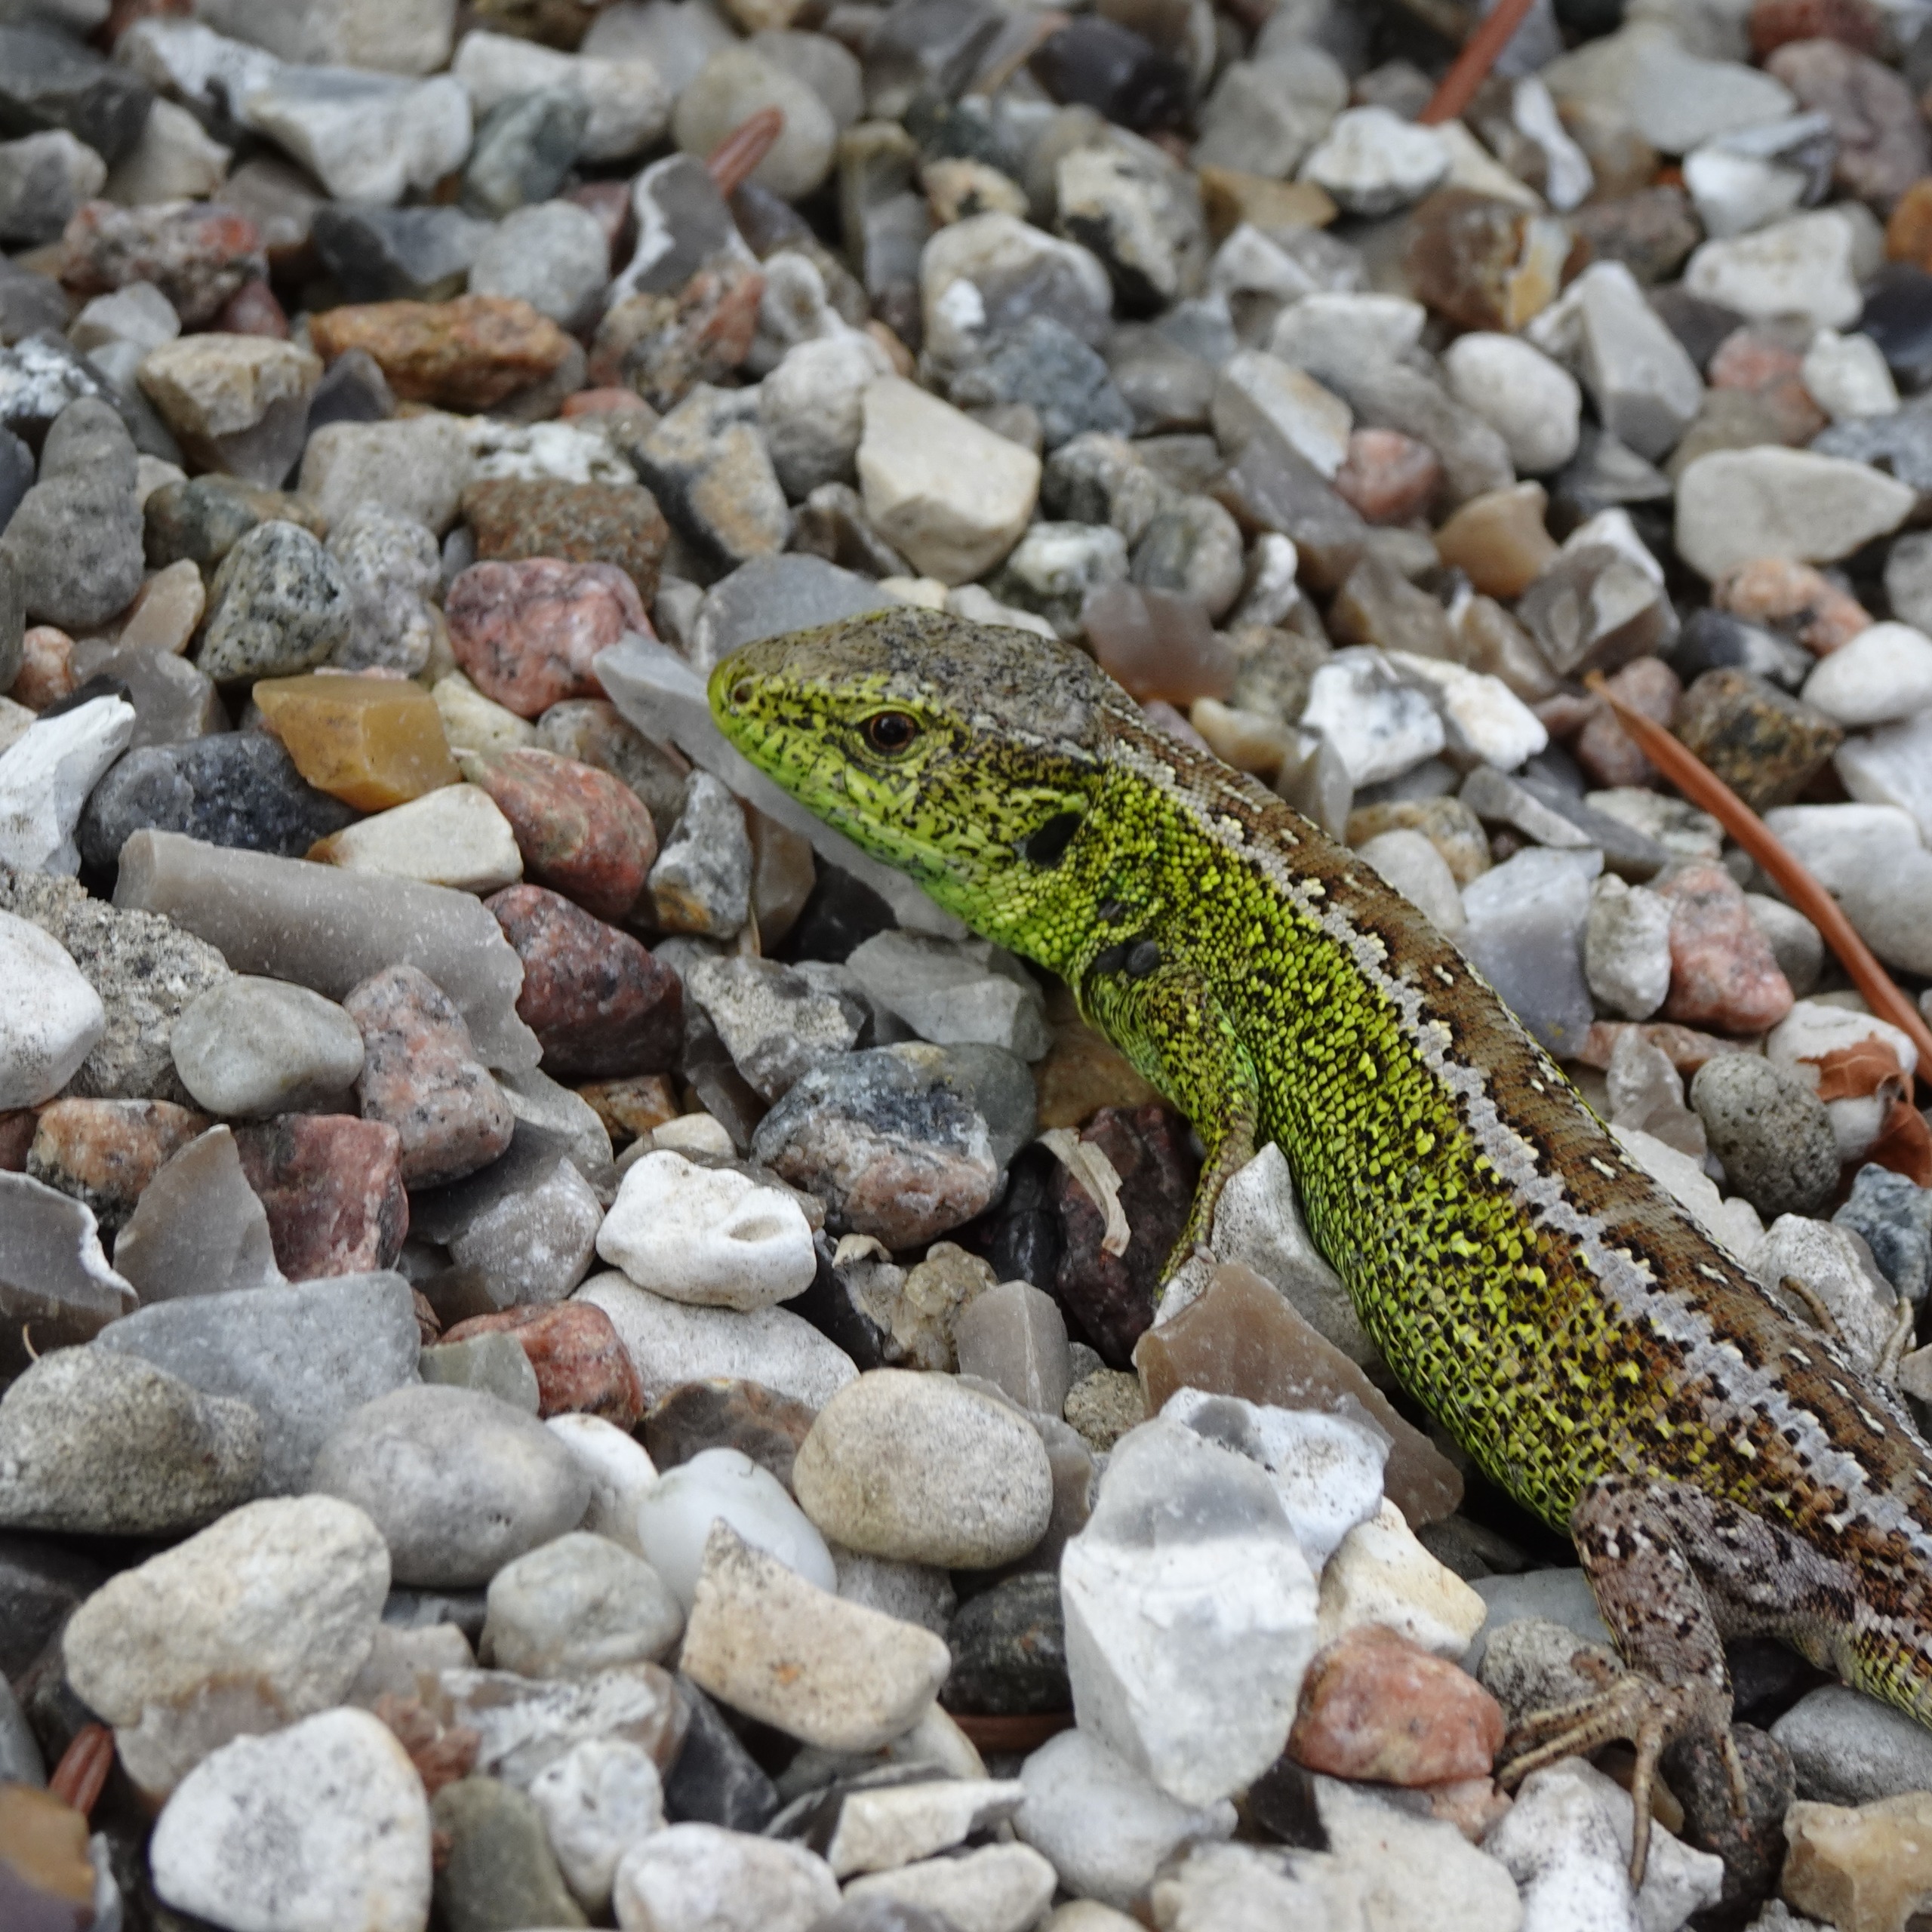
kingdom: Animalia
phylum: Chordata
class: Squamata
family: Lacertidae
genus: Lacerta
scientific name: Lacerta agilis
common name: Markfirben
